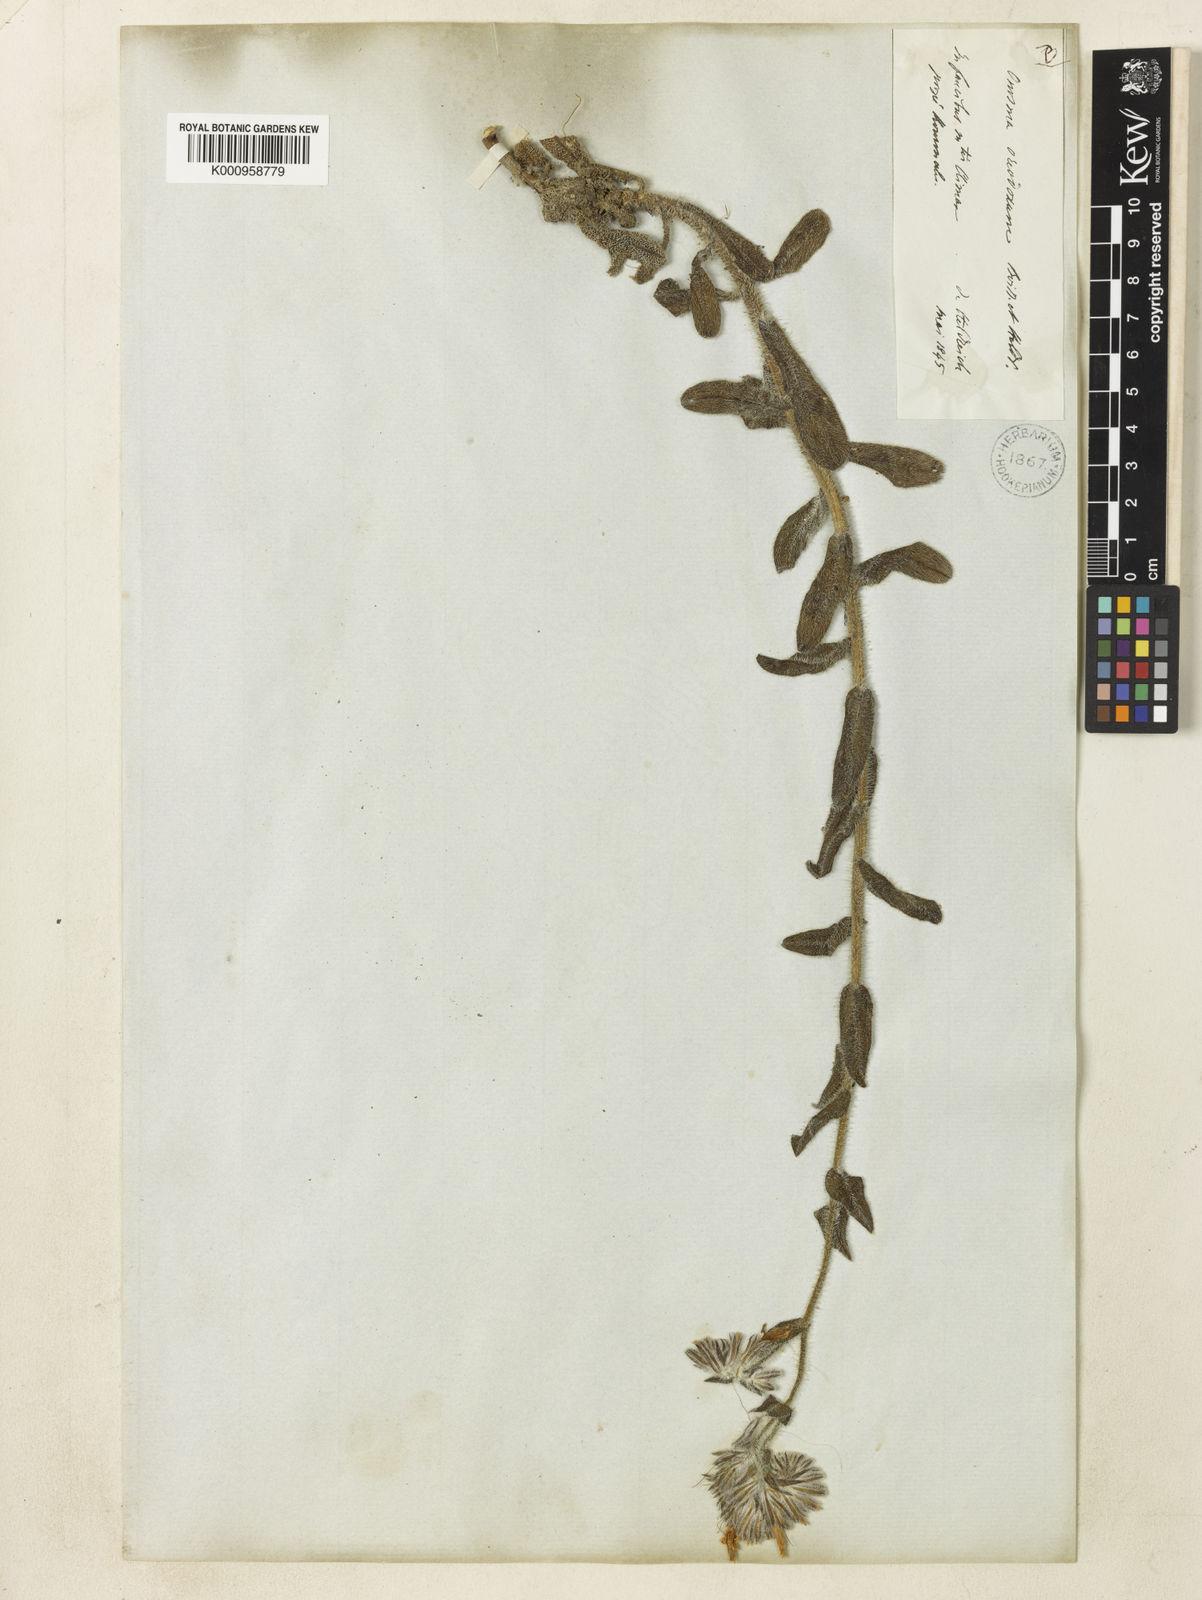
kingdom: Plantae
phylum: Tracheophyta
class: Magnoliopsida
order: Boraginales
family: Boraginaceae
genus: Onosma
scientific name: Onosma oreodoxa
